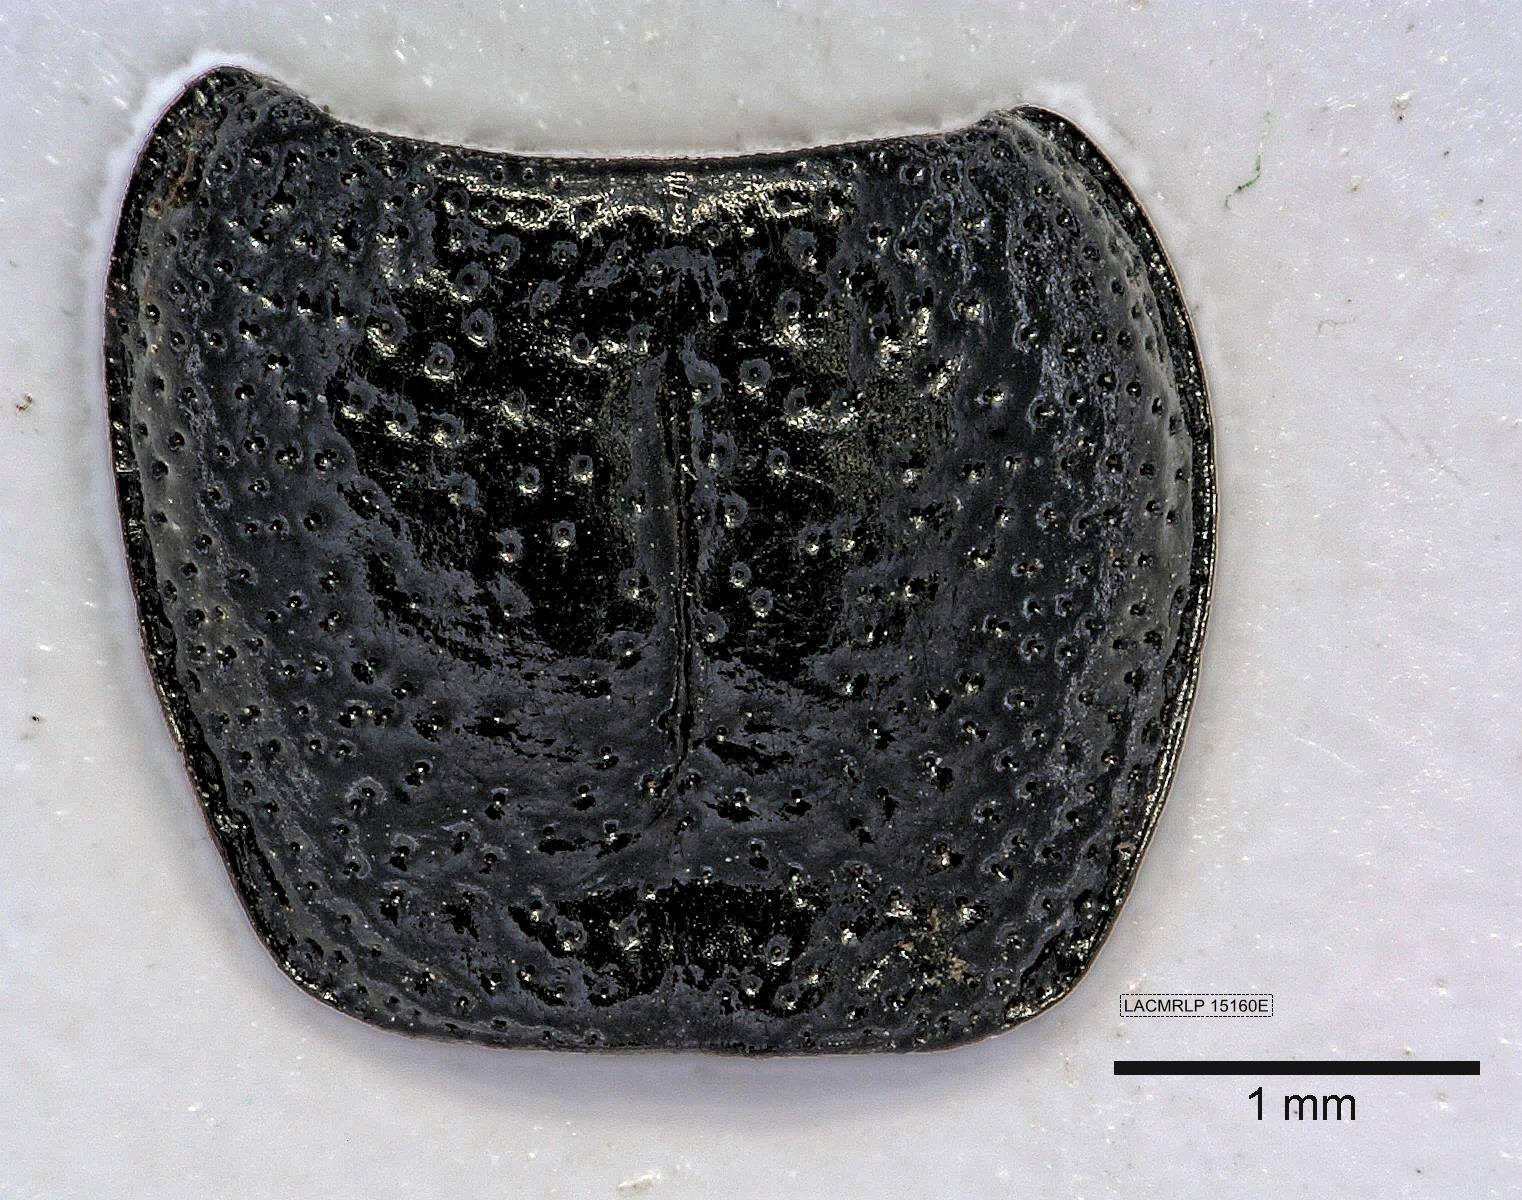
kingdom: Animalia
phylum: Arthropoda
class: Insecta
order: Coleoptera
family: Carabidae
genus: Dicheirus
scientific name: Dicheirus dilatatus
